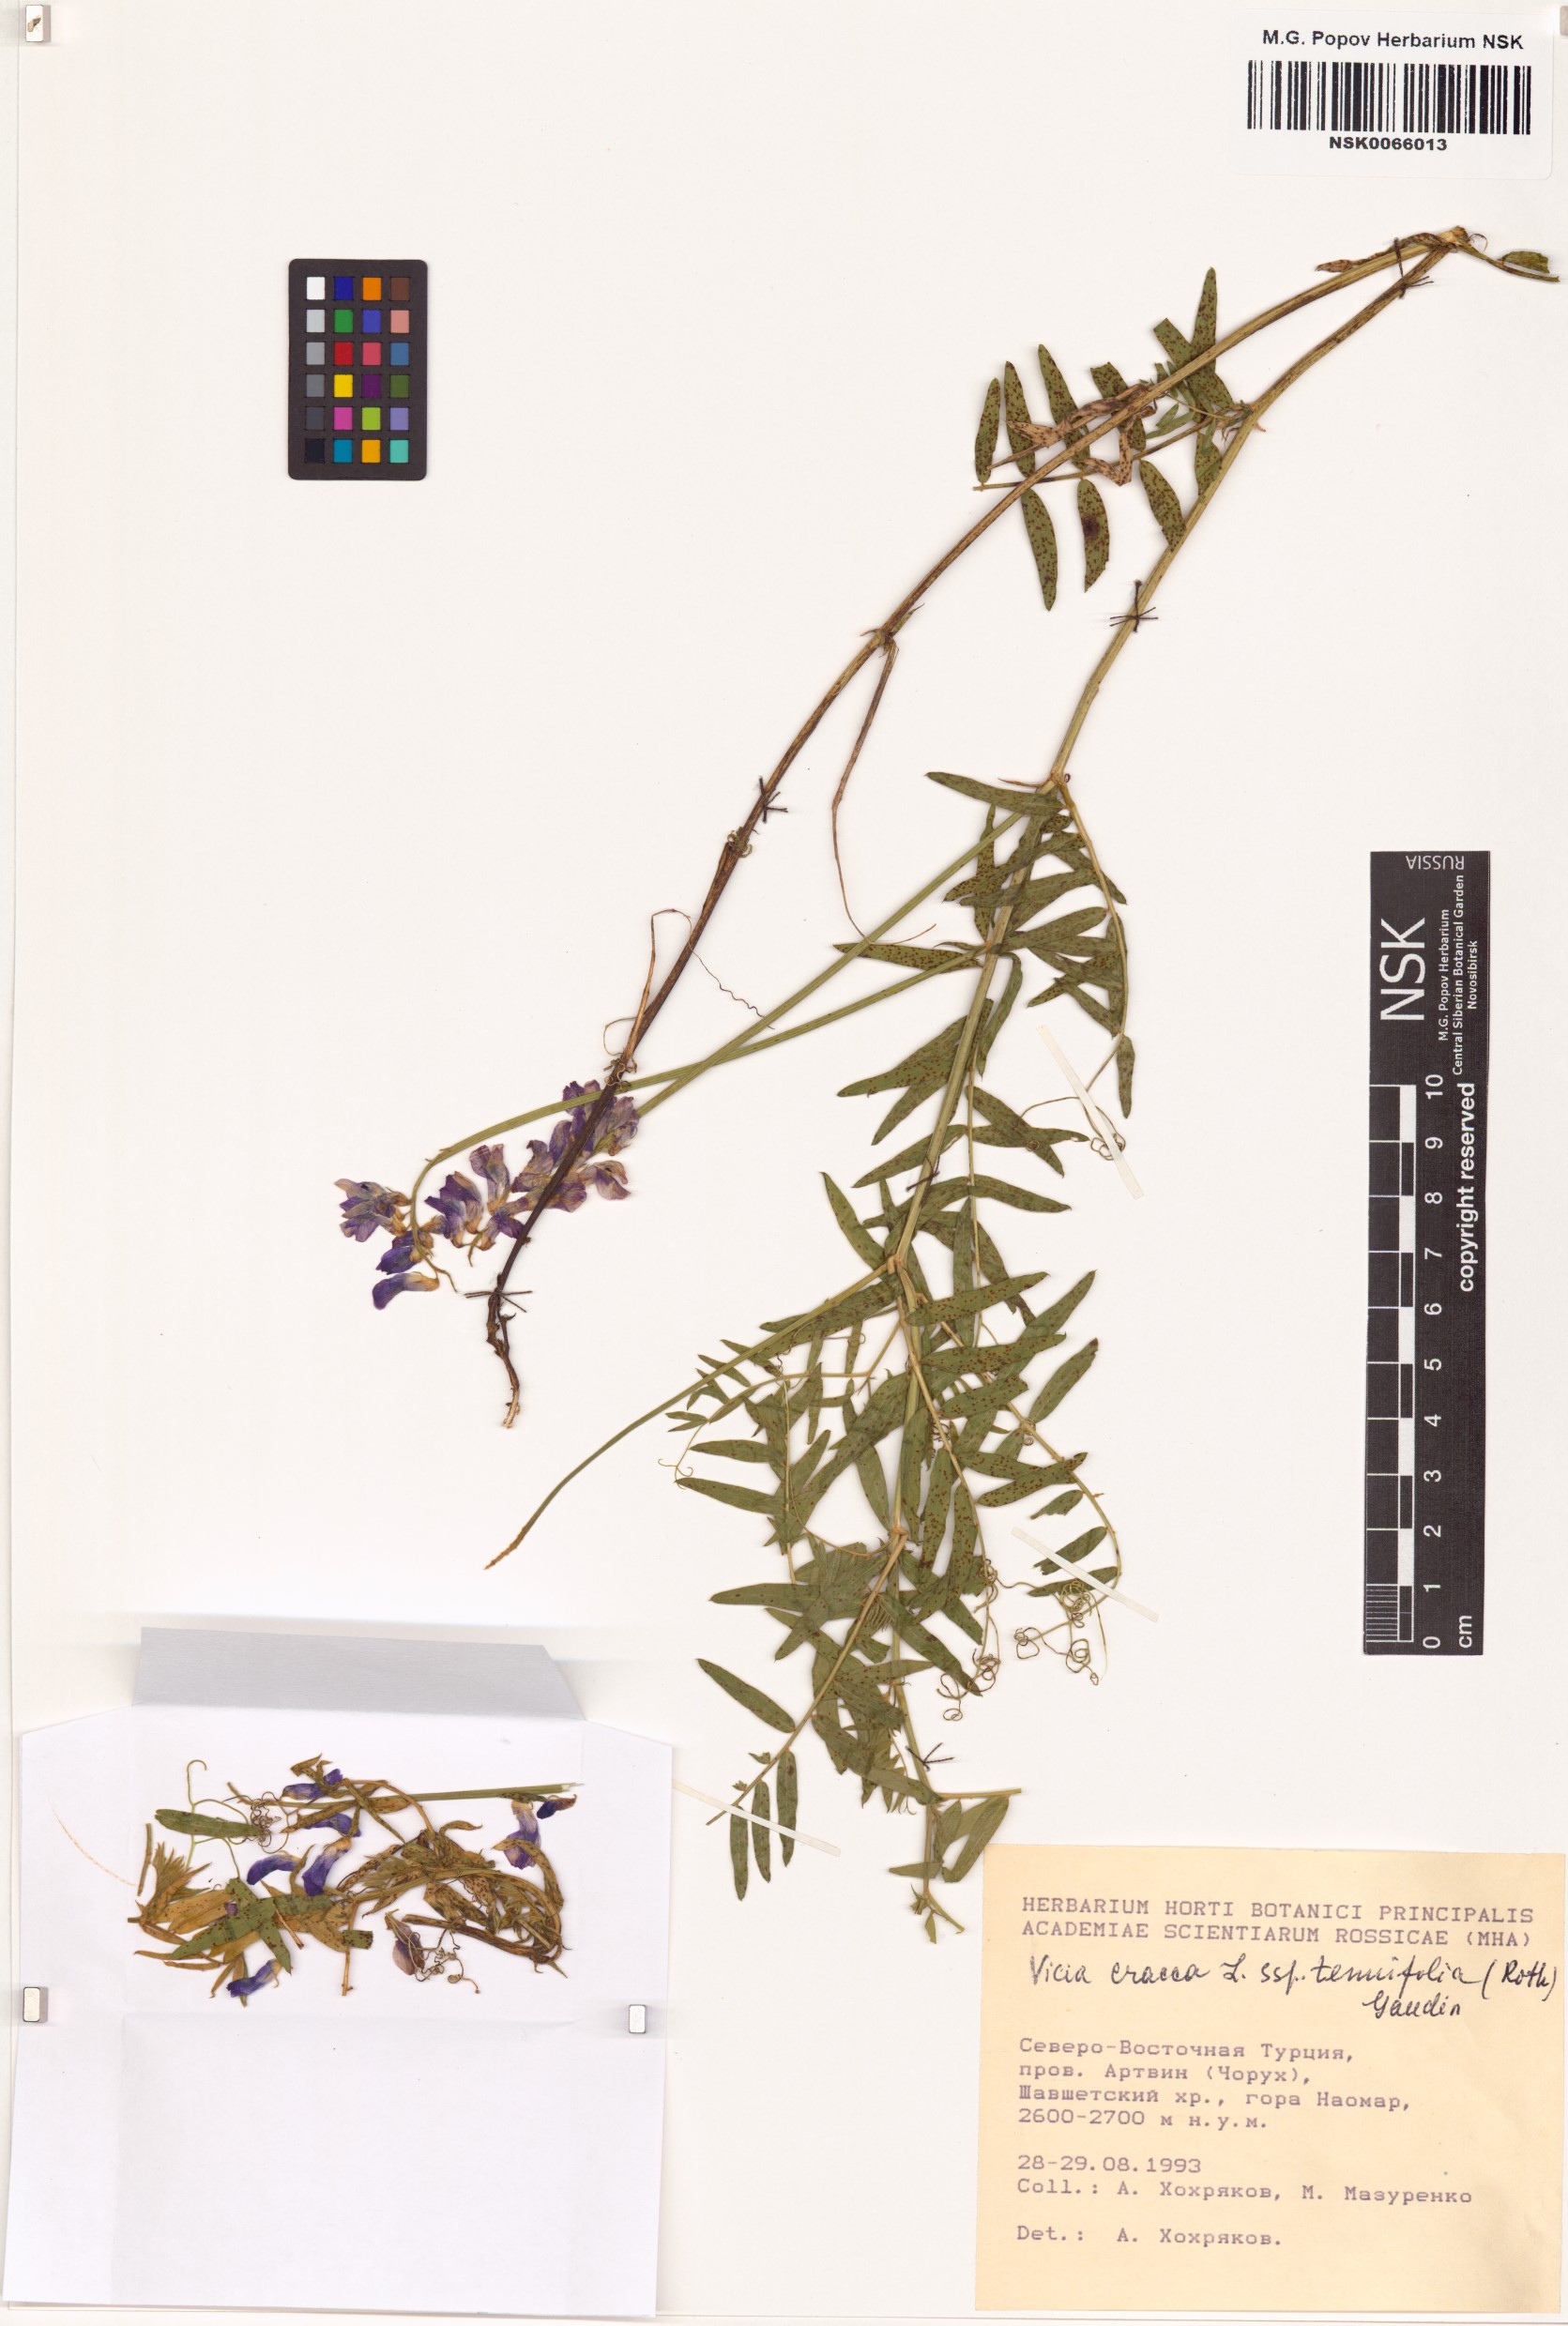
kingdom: Plantae
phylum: Tracheophyta
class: Magnoliopsida
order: Fabales
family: Fabaceae
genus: Vicia
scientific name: Vicia tenuifolia
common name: Fine-leaved vetch
